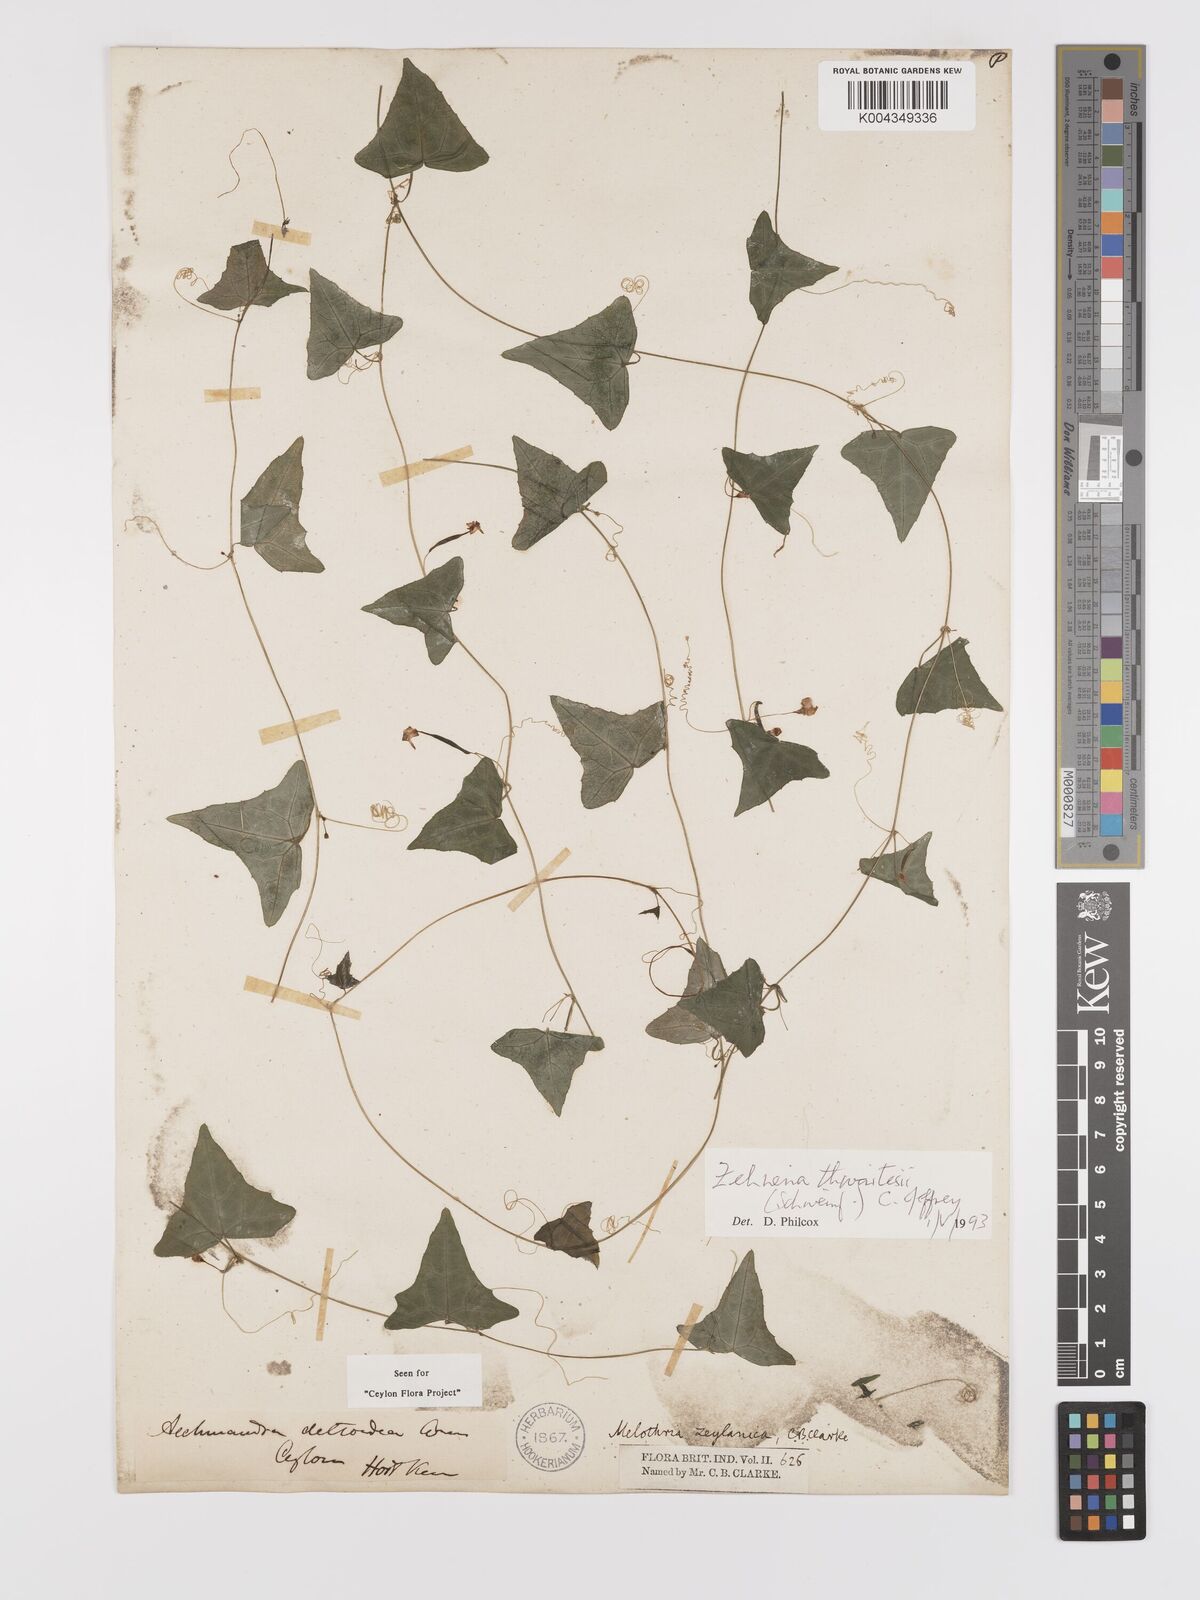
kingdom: Plantae
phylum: Tracheophyta
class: Magnoliopsida
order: Cucurbitales
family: Cucurbitaceae
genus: Zehneria
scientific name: Zehneria thwaitesii
